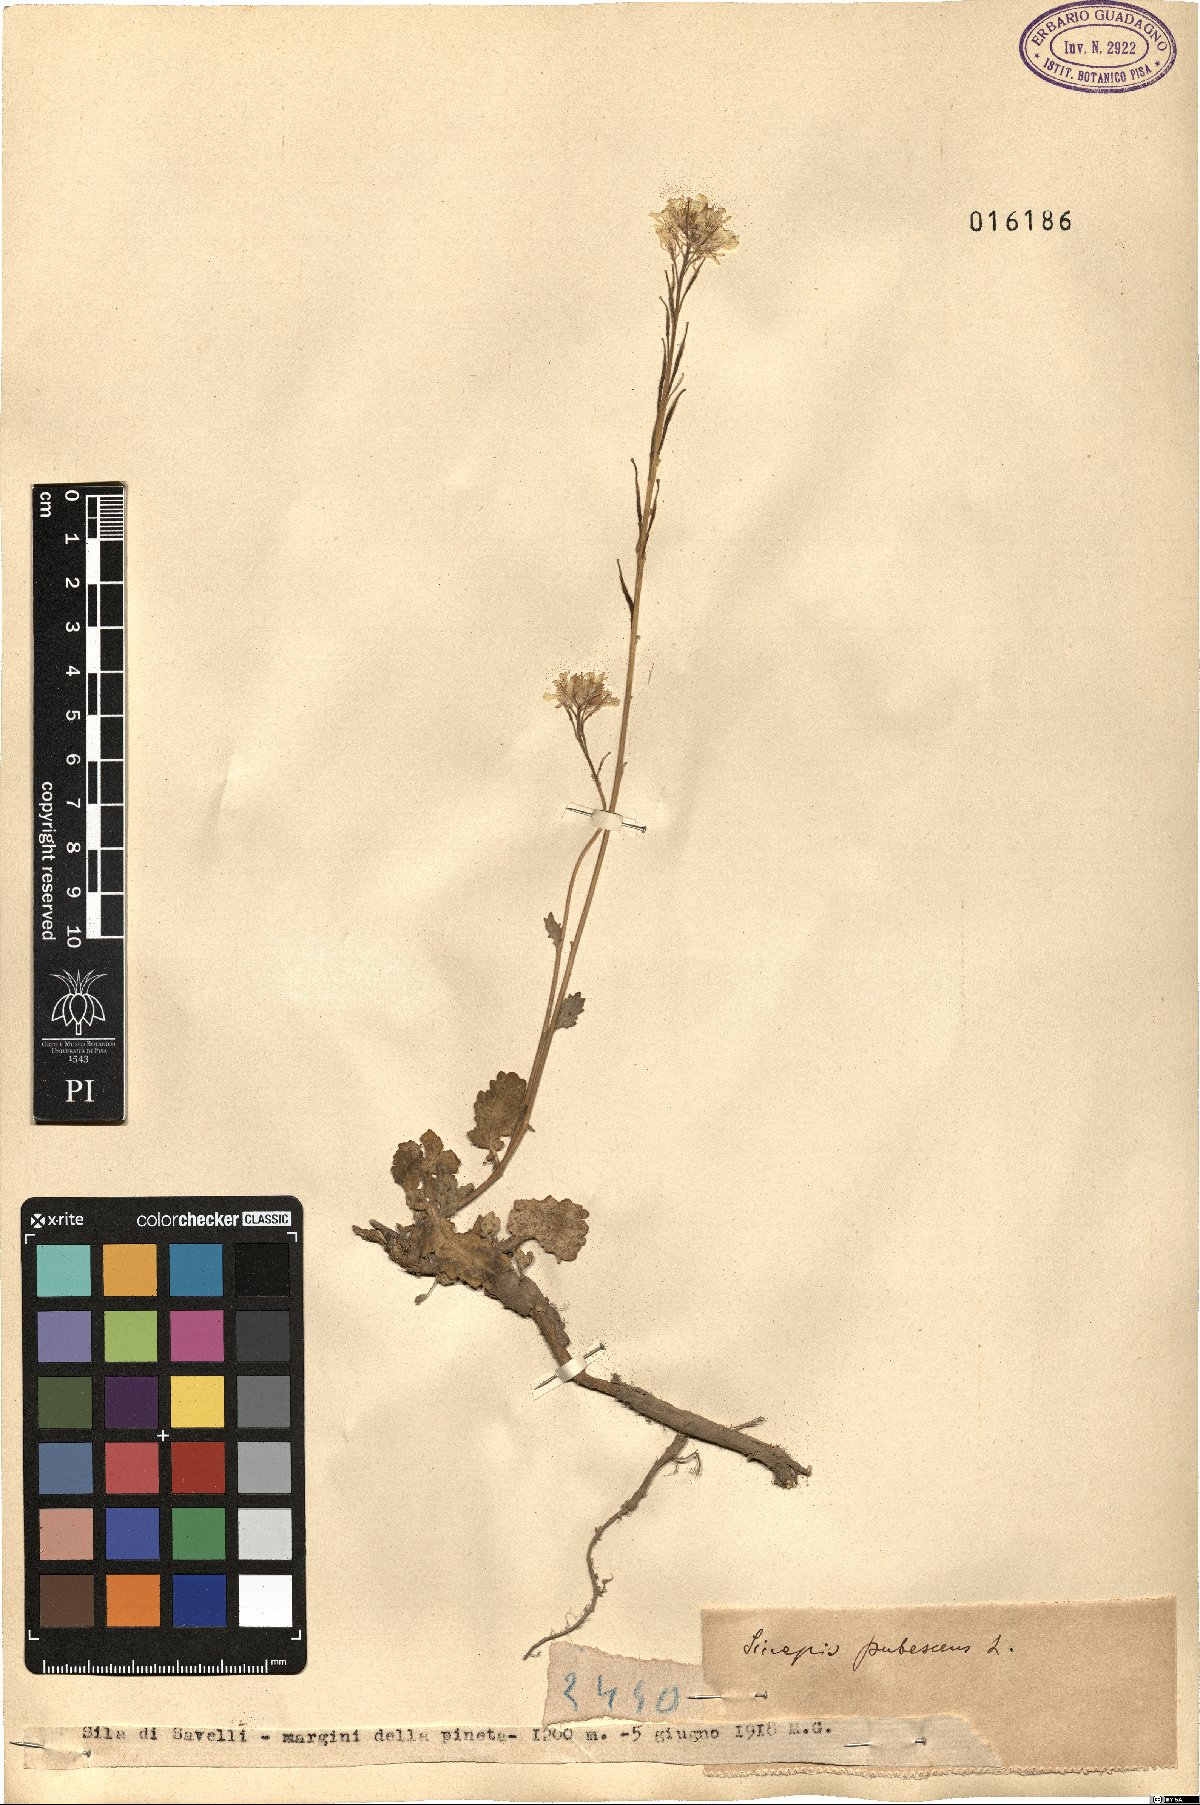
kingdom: Plantae
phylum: Tracheophyta
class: Magnoliopsida
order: Brassicales
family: Brassicaceae
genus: Sinapis
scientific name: Sinapis pubescens
